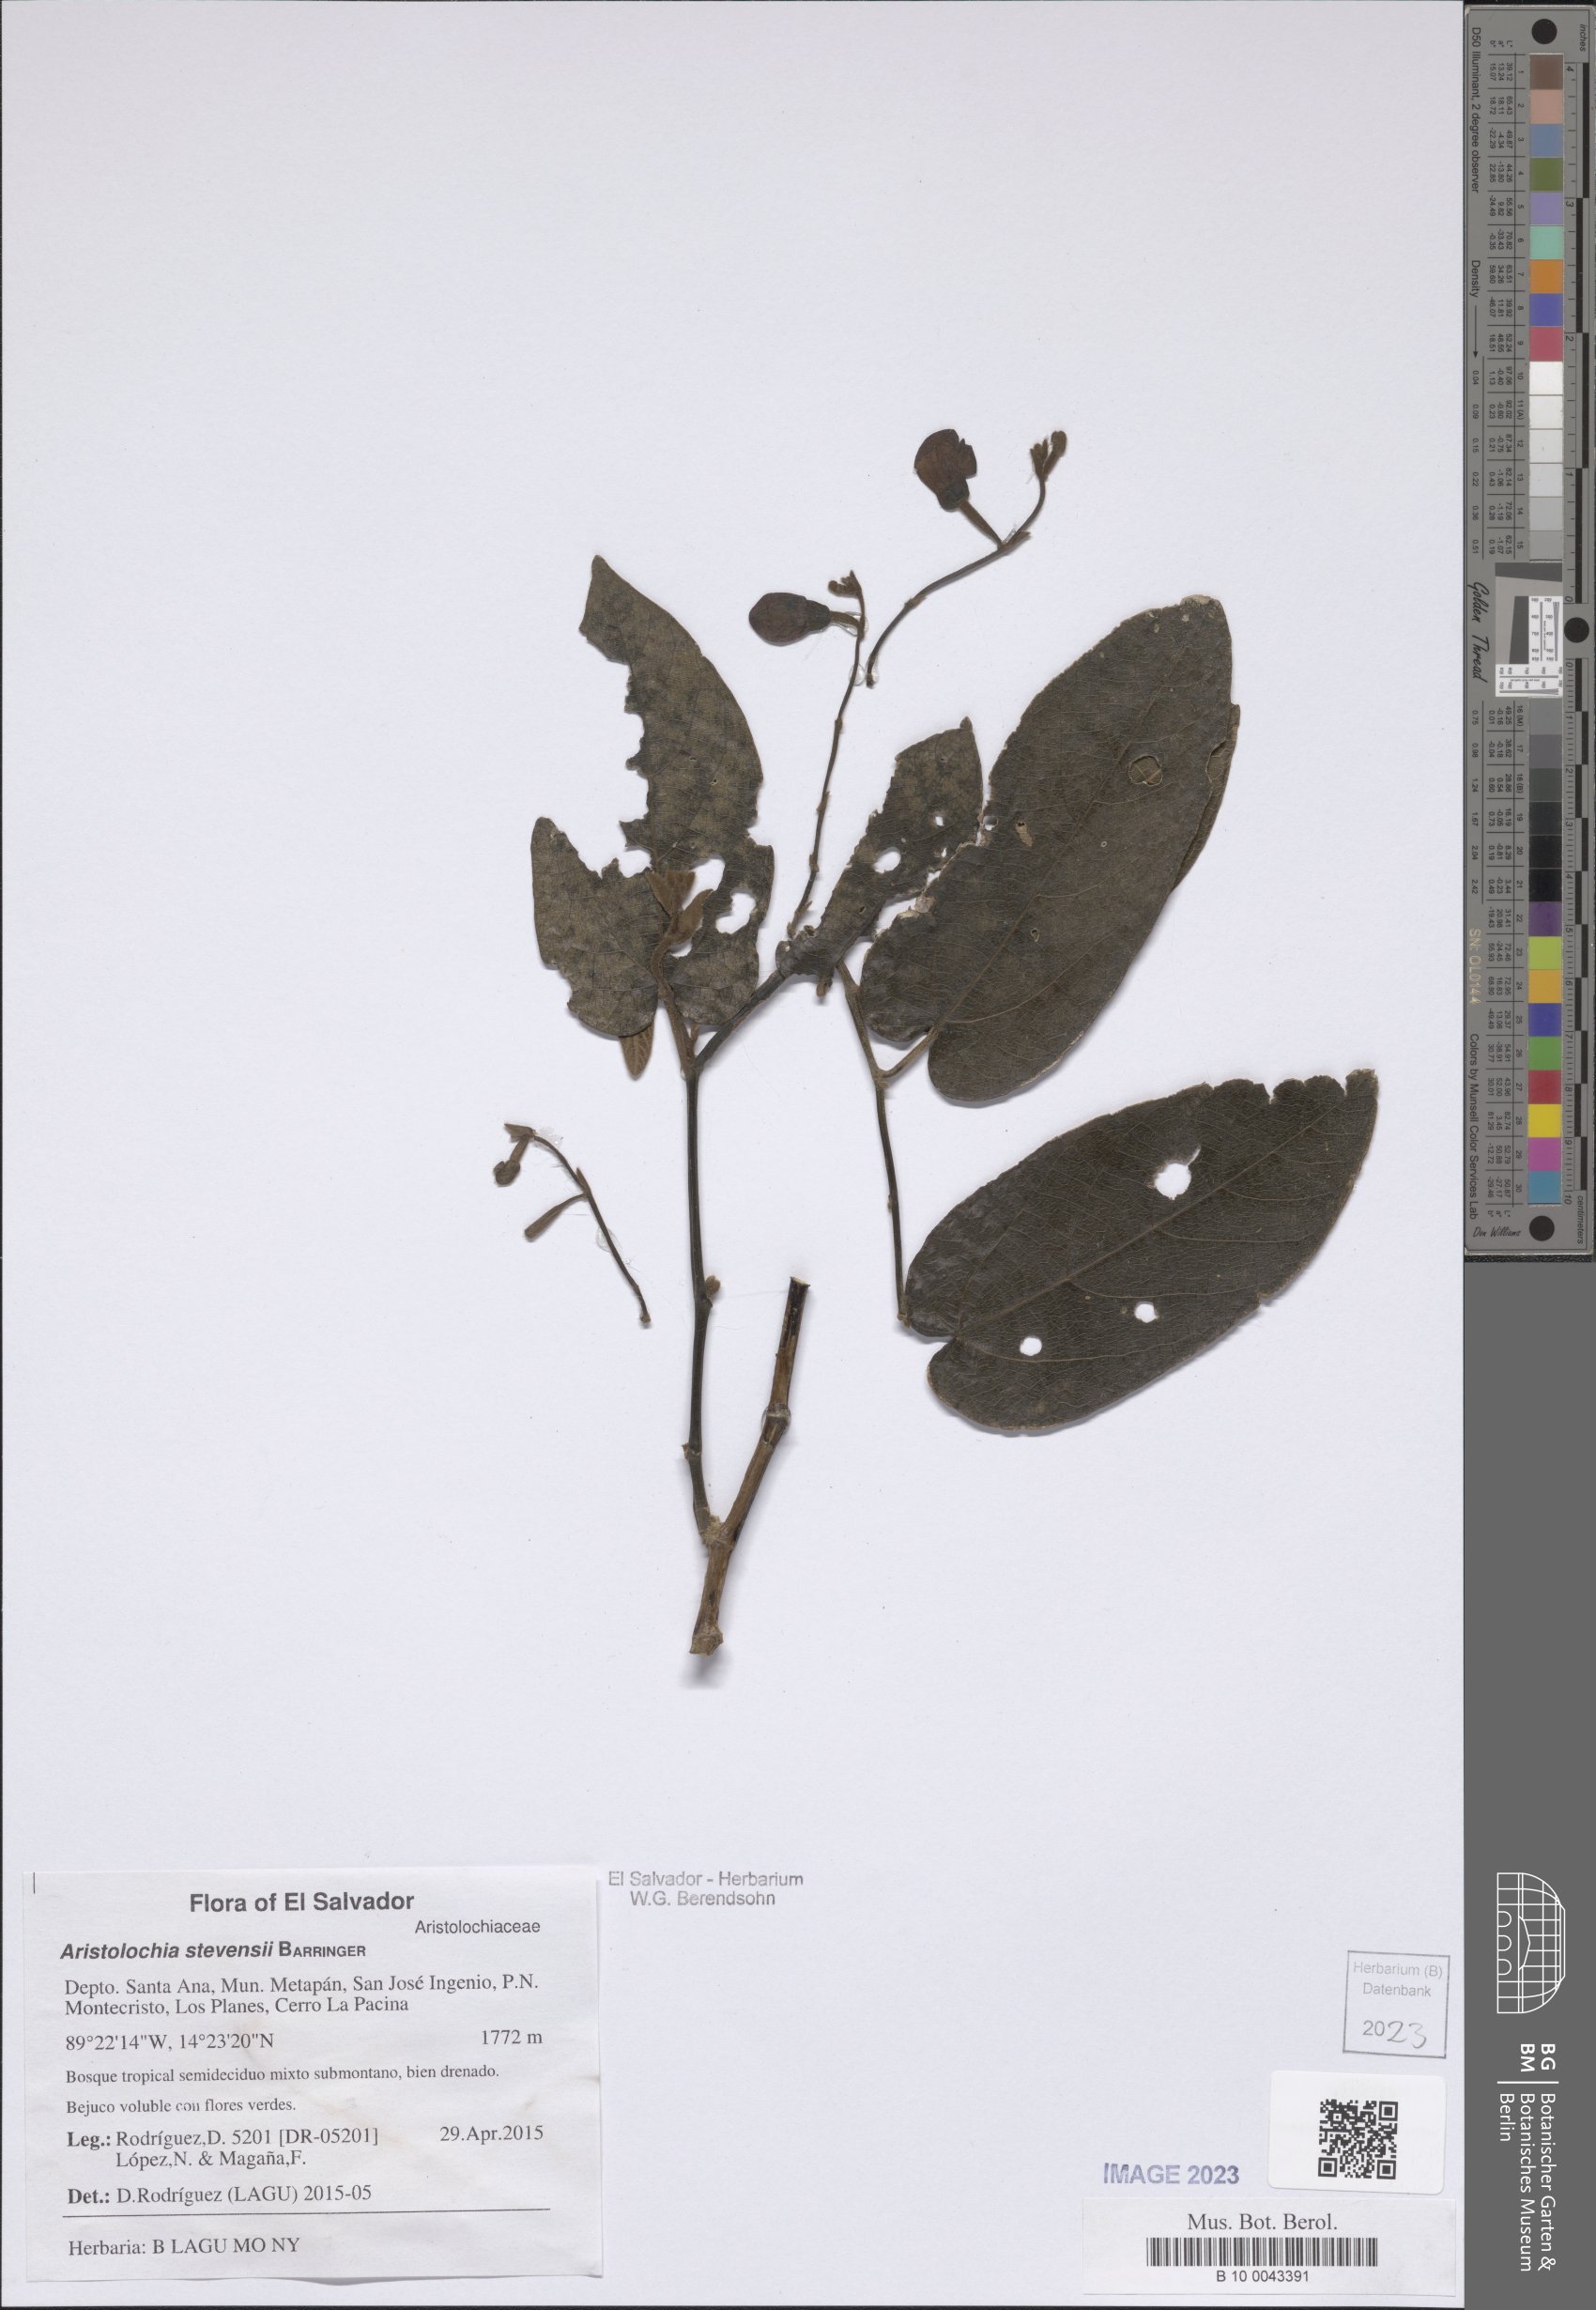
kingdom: Plantae
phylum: Tracheophyta
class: Magnoliopsida
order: Piperales
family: Aristolochiaceae
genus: Isotrema
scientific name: Isotrema stevensii
